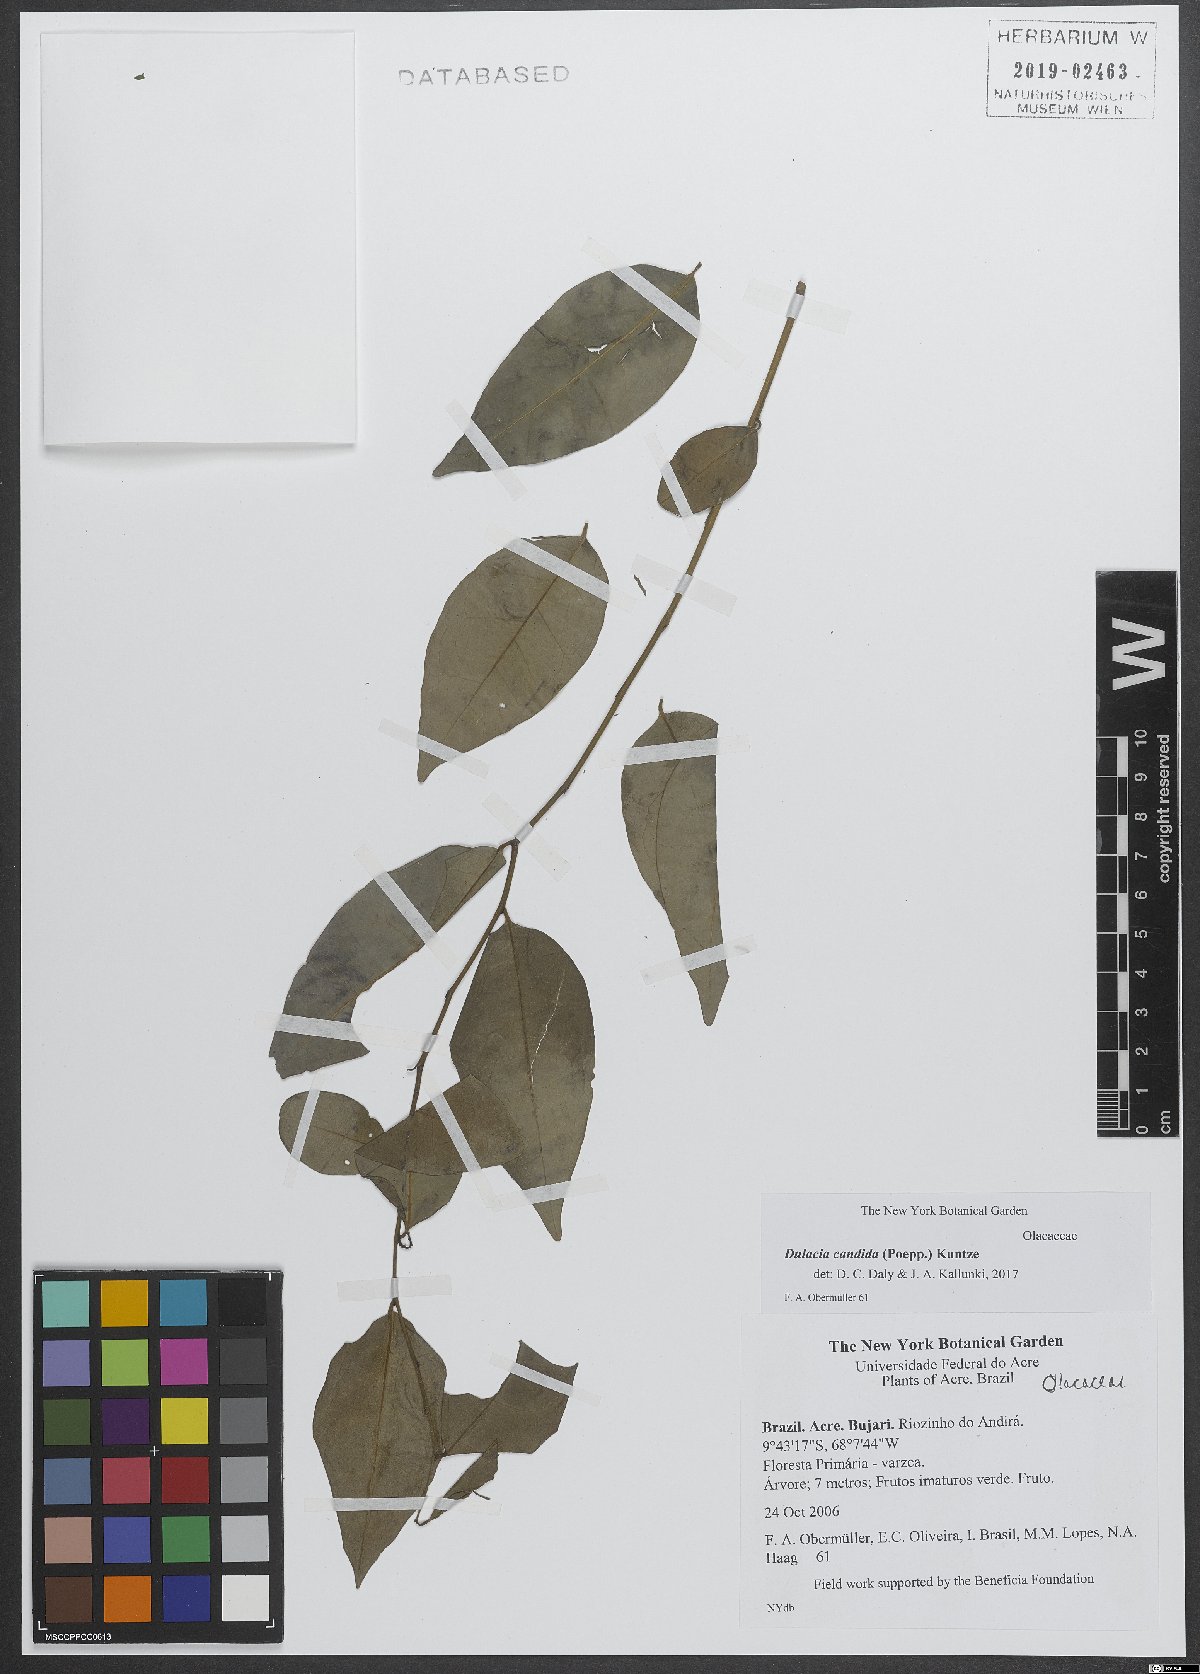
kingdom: Plantae
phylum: Tracheophyta
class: Magnoliopsida
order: Santalales
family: Olacaceae
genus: Dulacia
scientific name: Dulacia candida
